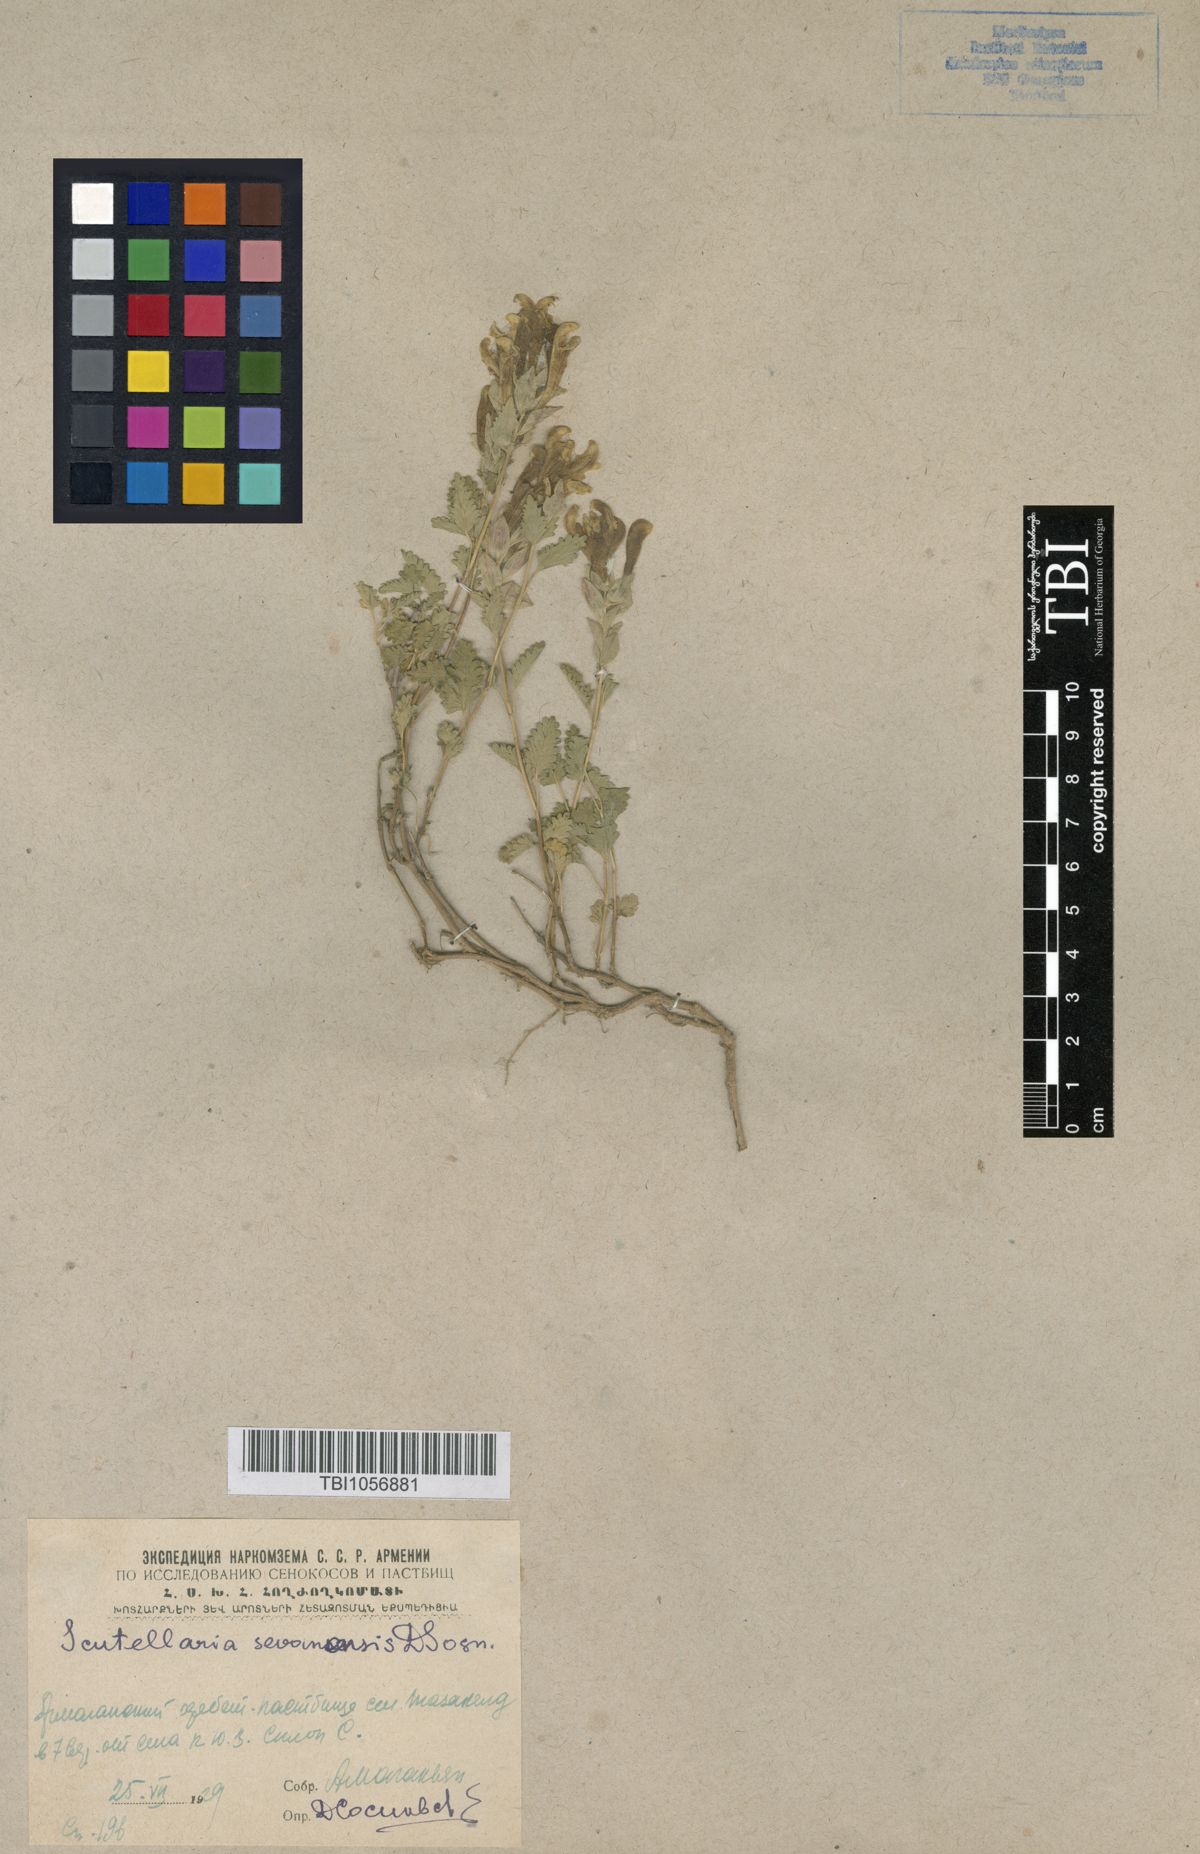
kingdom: Plantae
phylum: Tracheophyta
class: Magnoliopsida
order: Lamiales
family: Lamiaceae
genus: Scutellaria
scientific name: Scutellaria sevanensis
